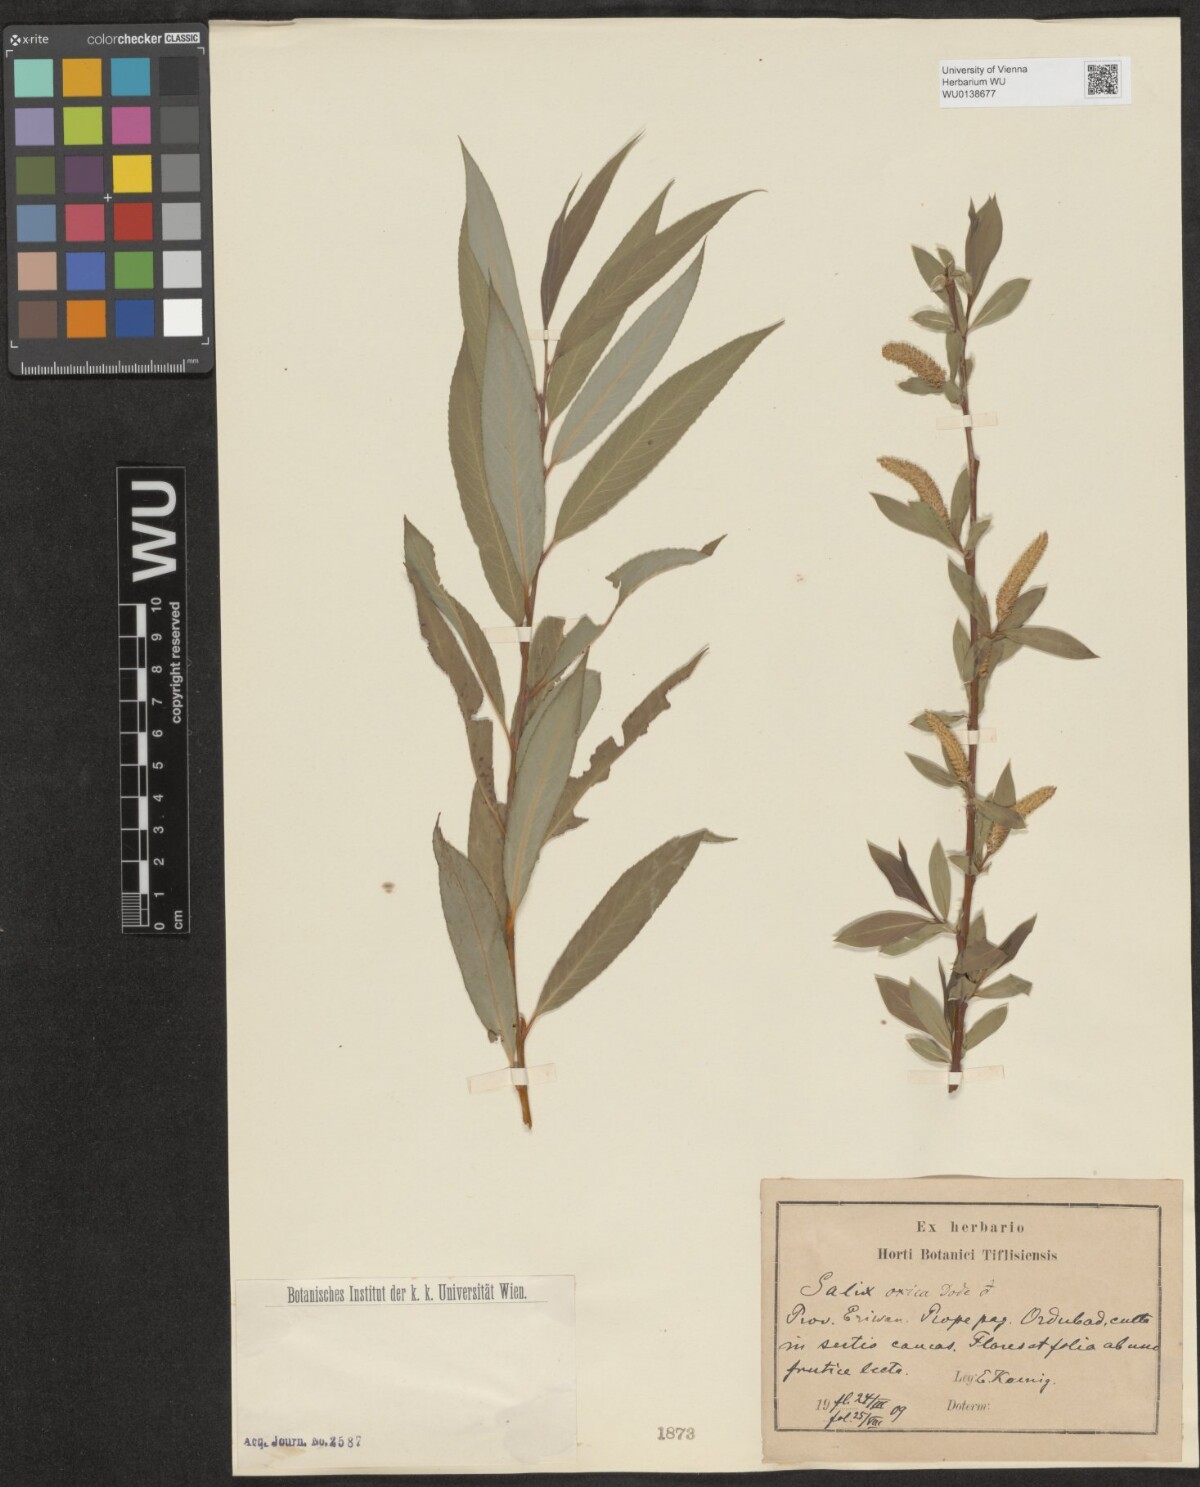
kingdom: Plantae
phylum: Tracheophyta
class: Magnoliopsida
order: Malpighiales
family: Salicaceae
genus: Salix
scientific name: Salix excelsa
